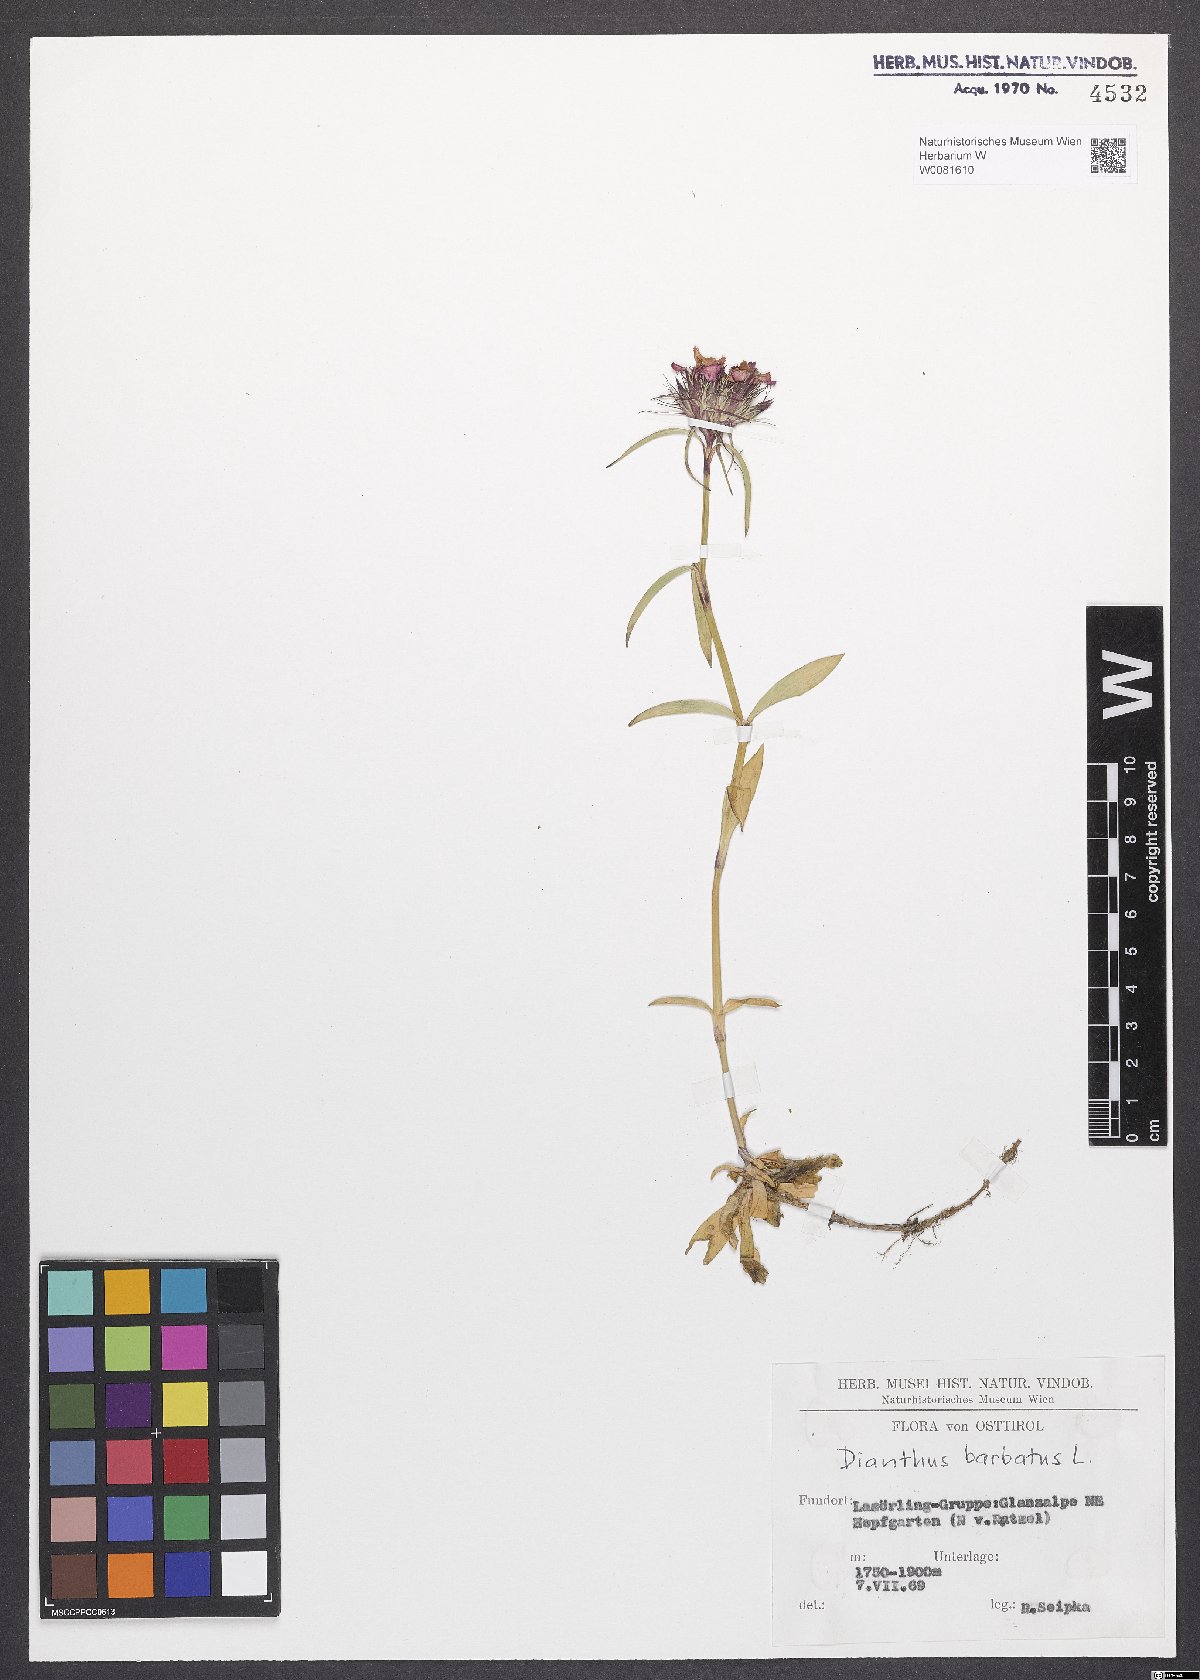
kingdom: Plantae
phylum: Tracheophyta
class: Magnoliopsida
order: Caryophyllales
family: Caryophyllaceae
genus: Dianthus
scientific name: Dianthus barbatus
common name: Sweet-william
